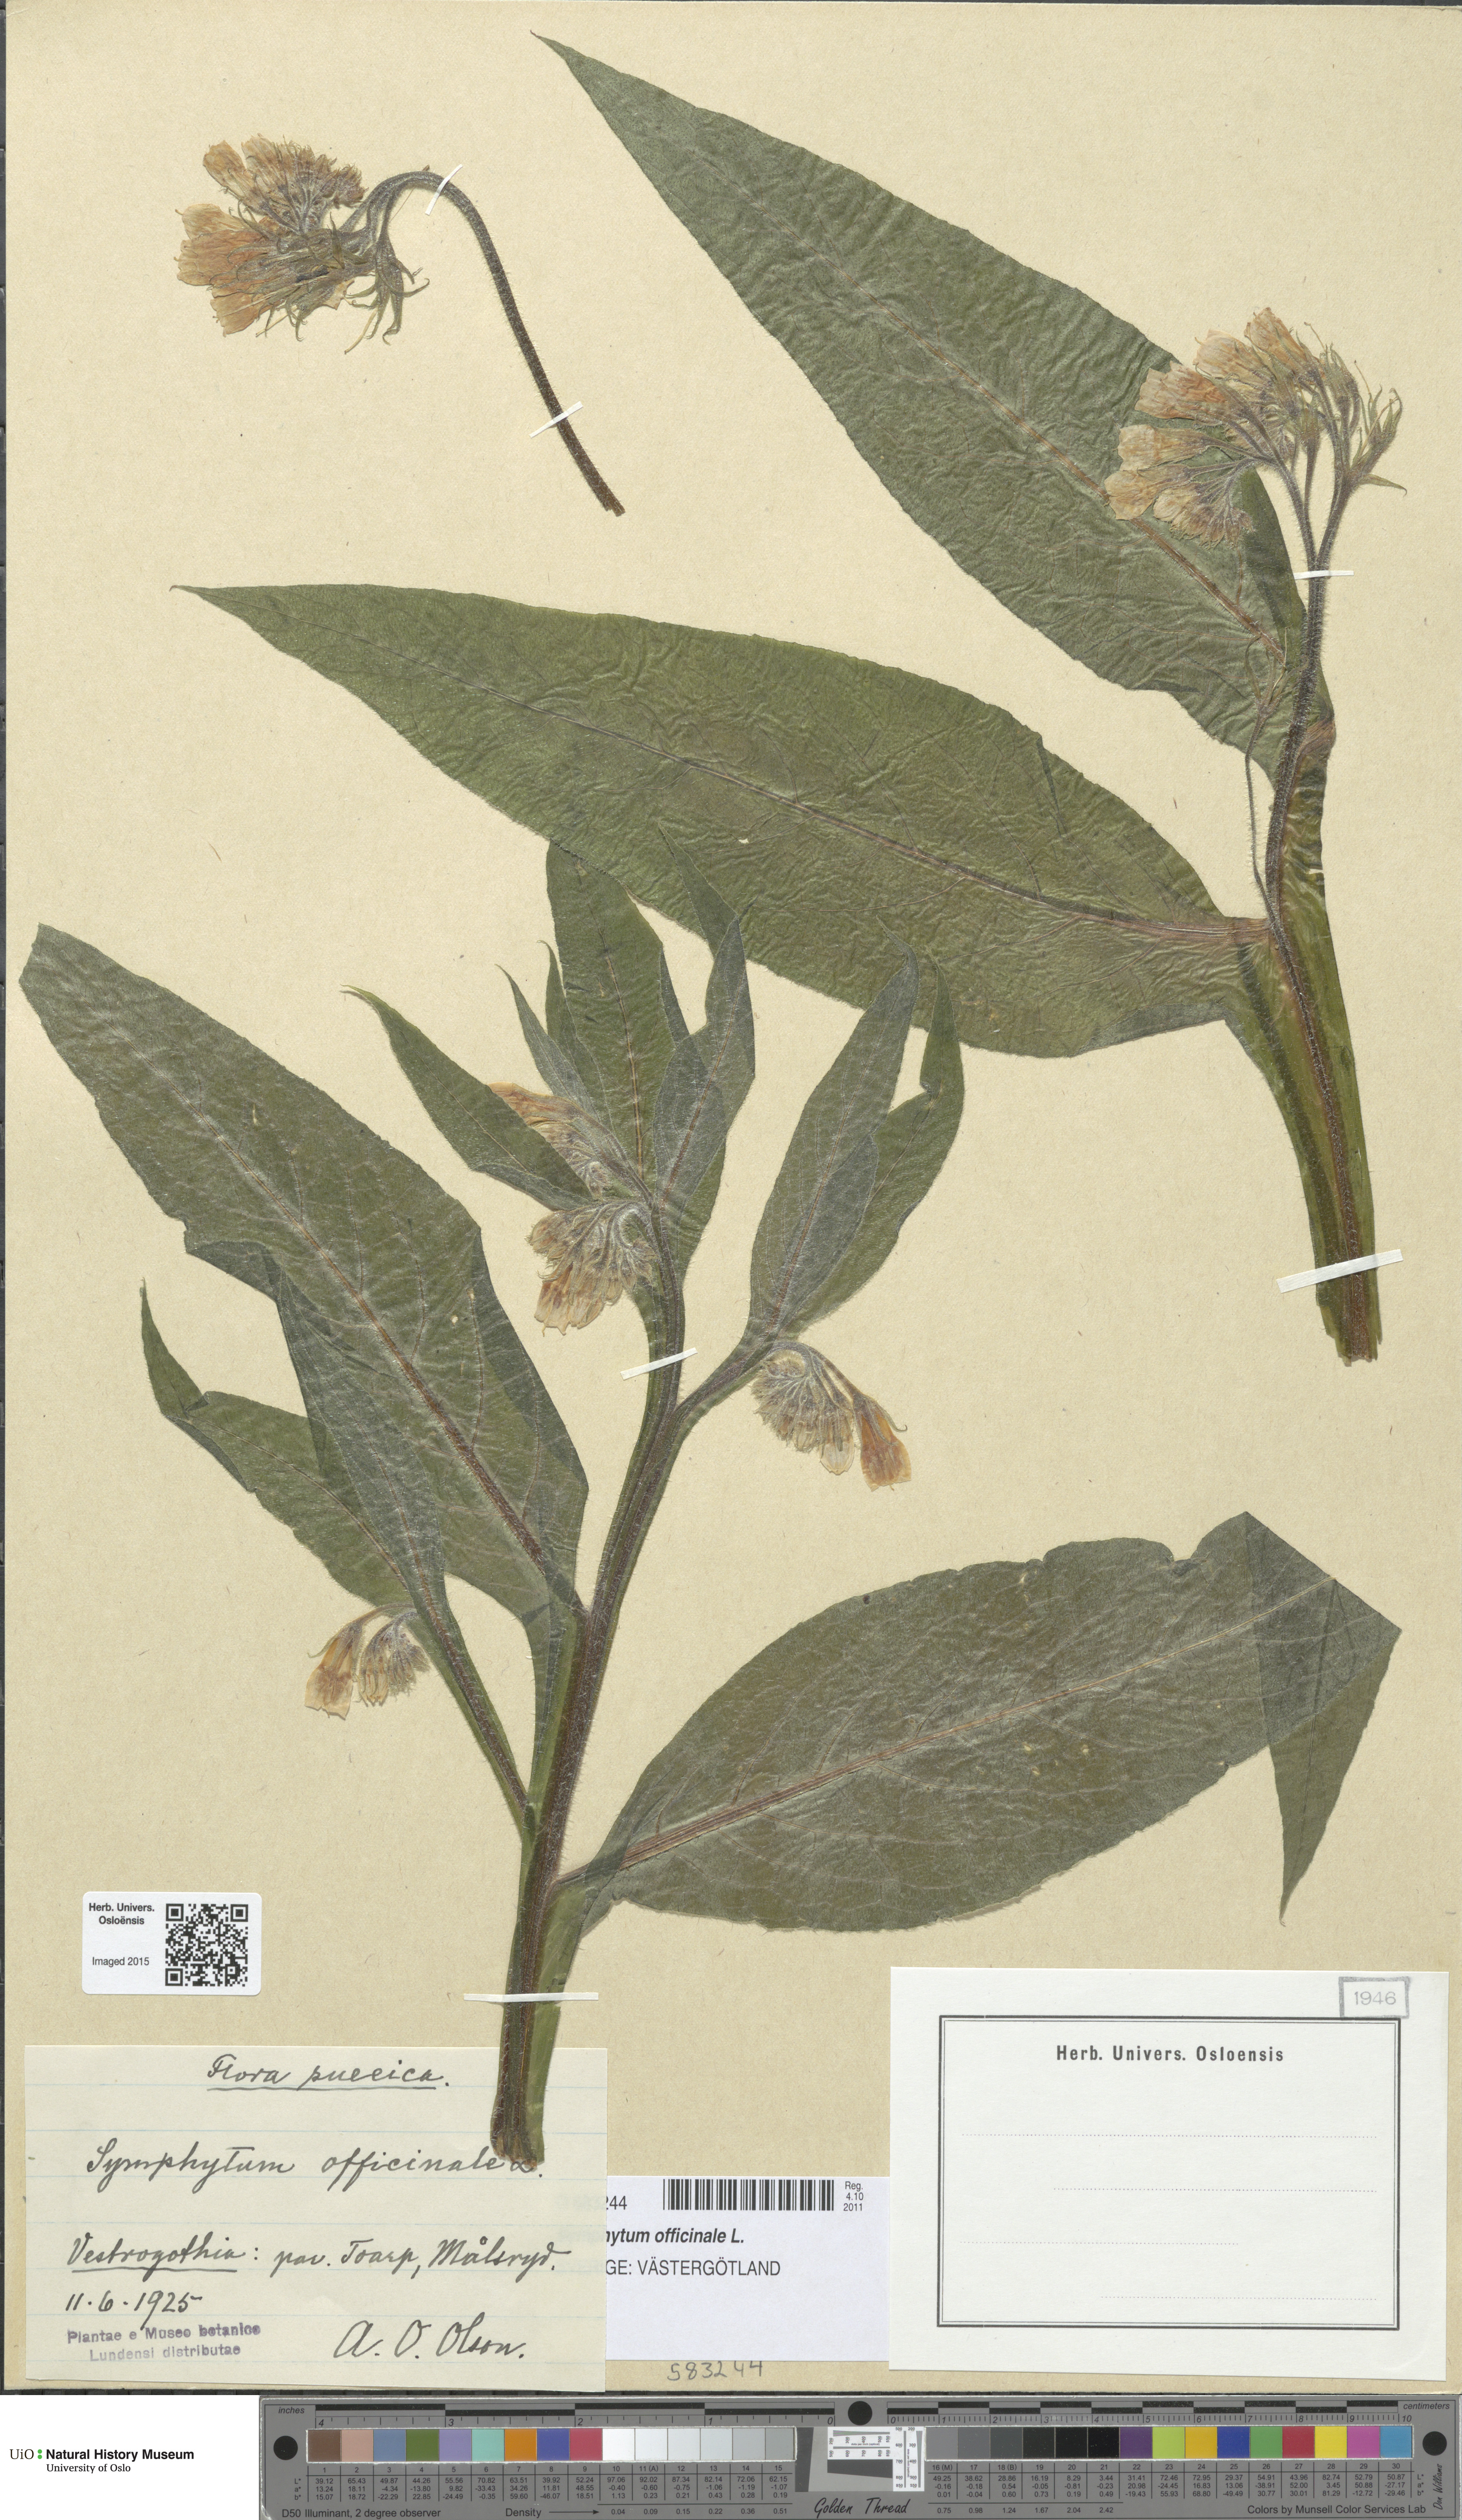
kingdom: Plantae
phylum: Tracheophyta
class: Magnoliopsida
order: Boraginales
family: Boraginaceae
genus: Symphytum
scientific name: Symphytum officinale
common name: Common comfrey
